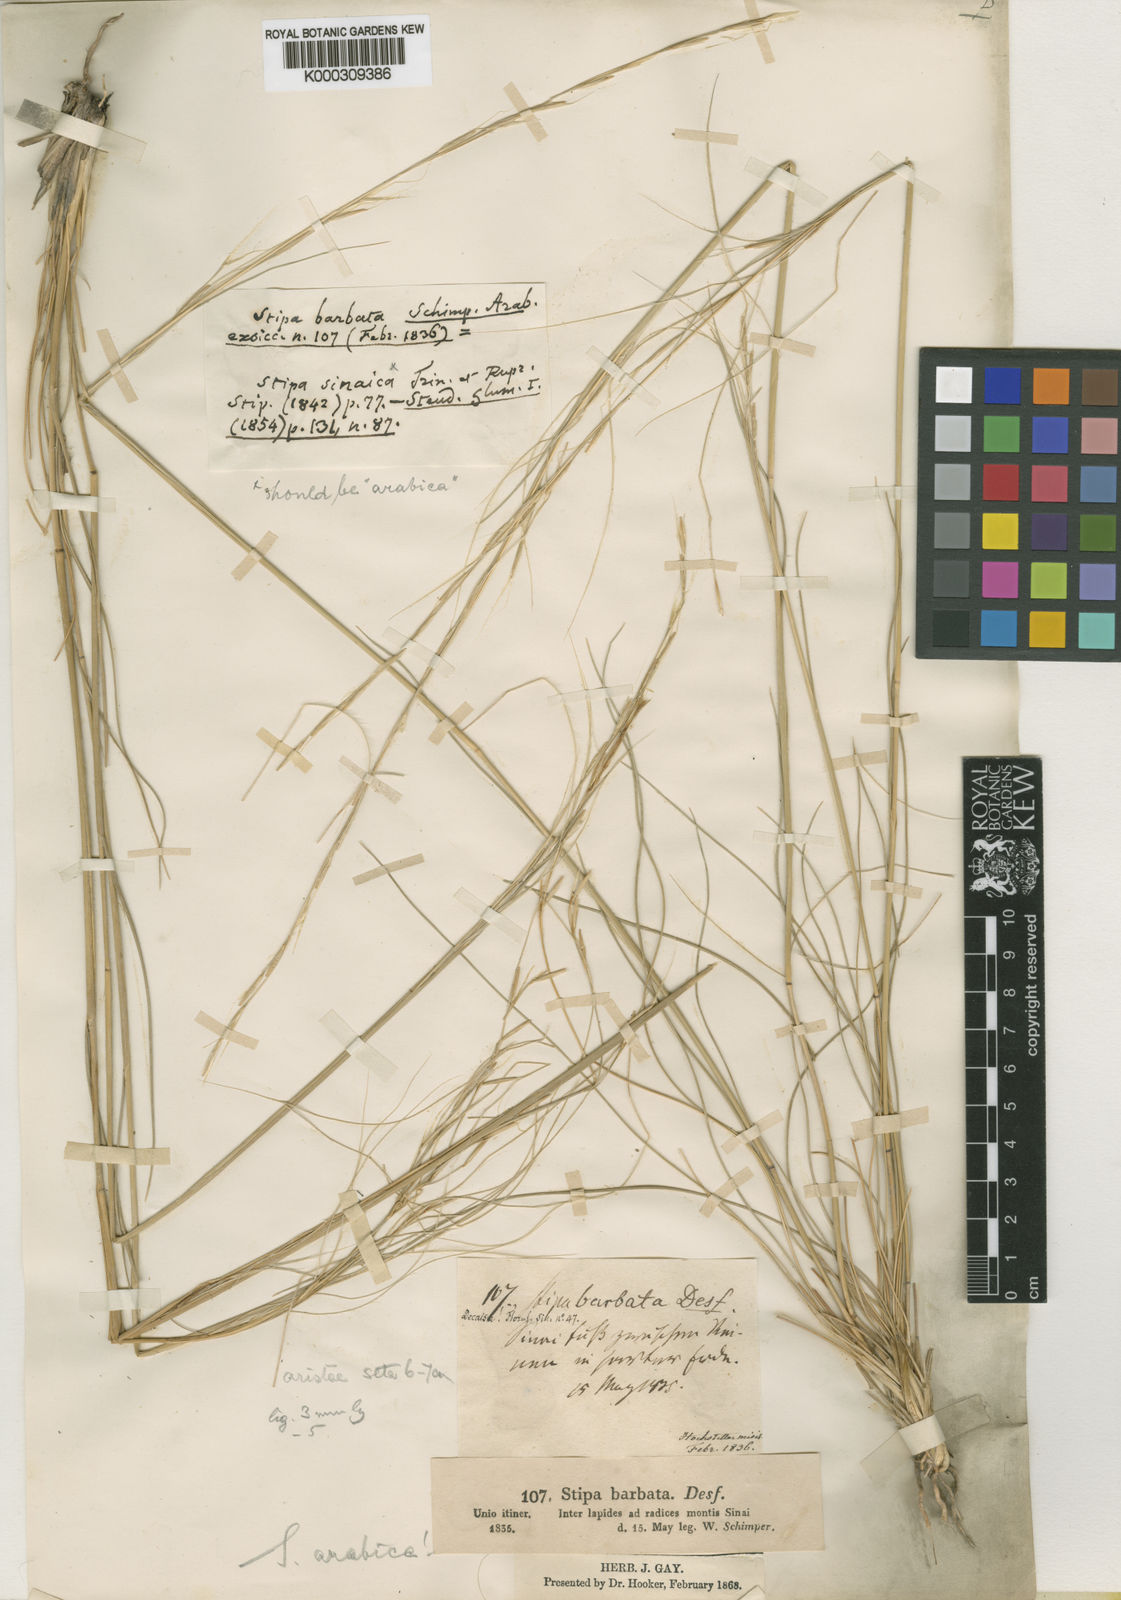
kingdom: Plantae
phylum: Tracheophyta
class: Liliopsida
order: Poales
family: Poaceae
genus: Stipa
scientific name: Stipa arabica
